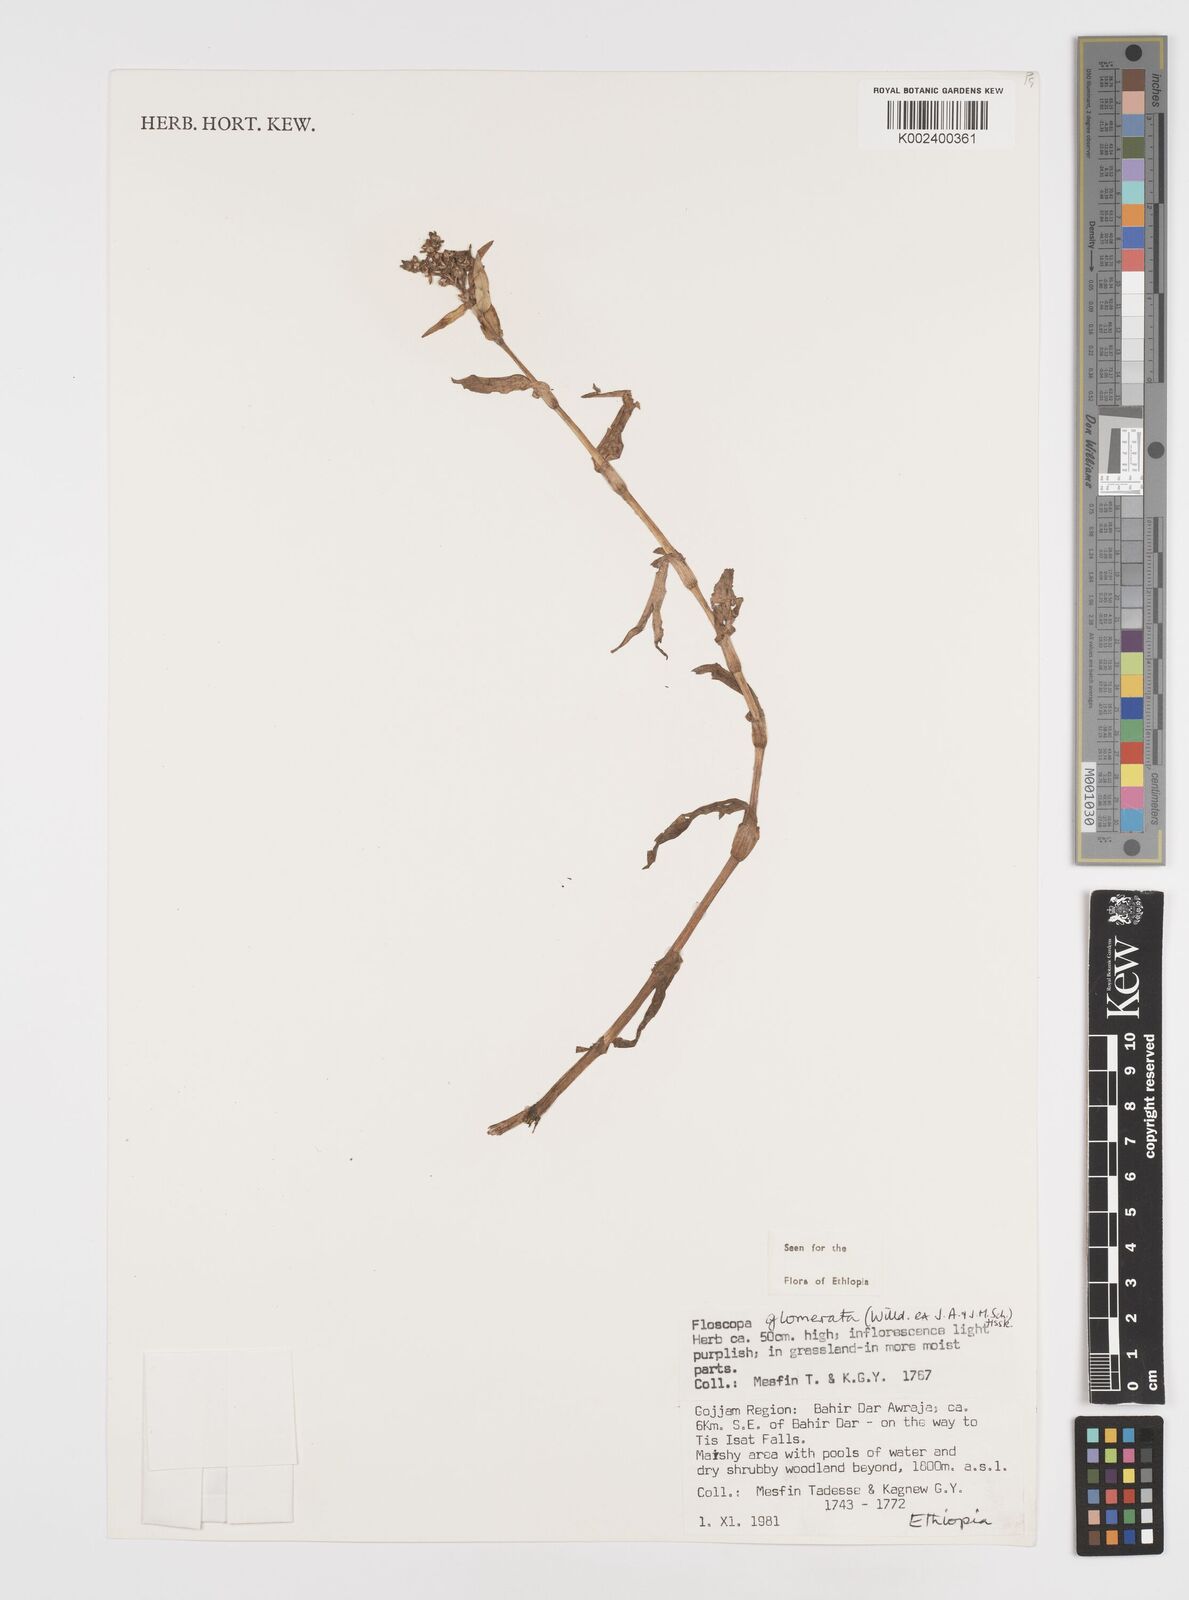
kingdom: Plantae
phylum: Tracheophyta
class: Liliopsida
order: Commelinales
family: Commelinaceae
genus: Floscopa
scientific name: Floscopa glomerata
